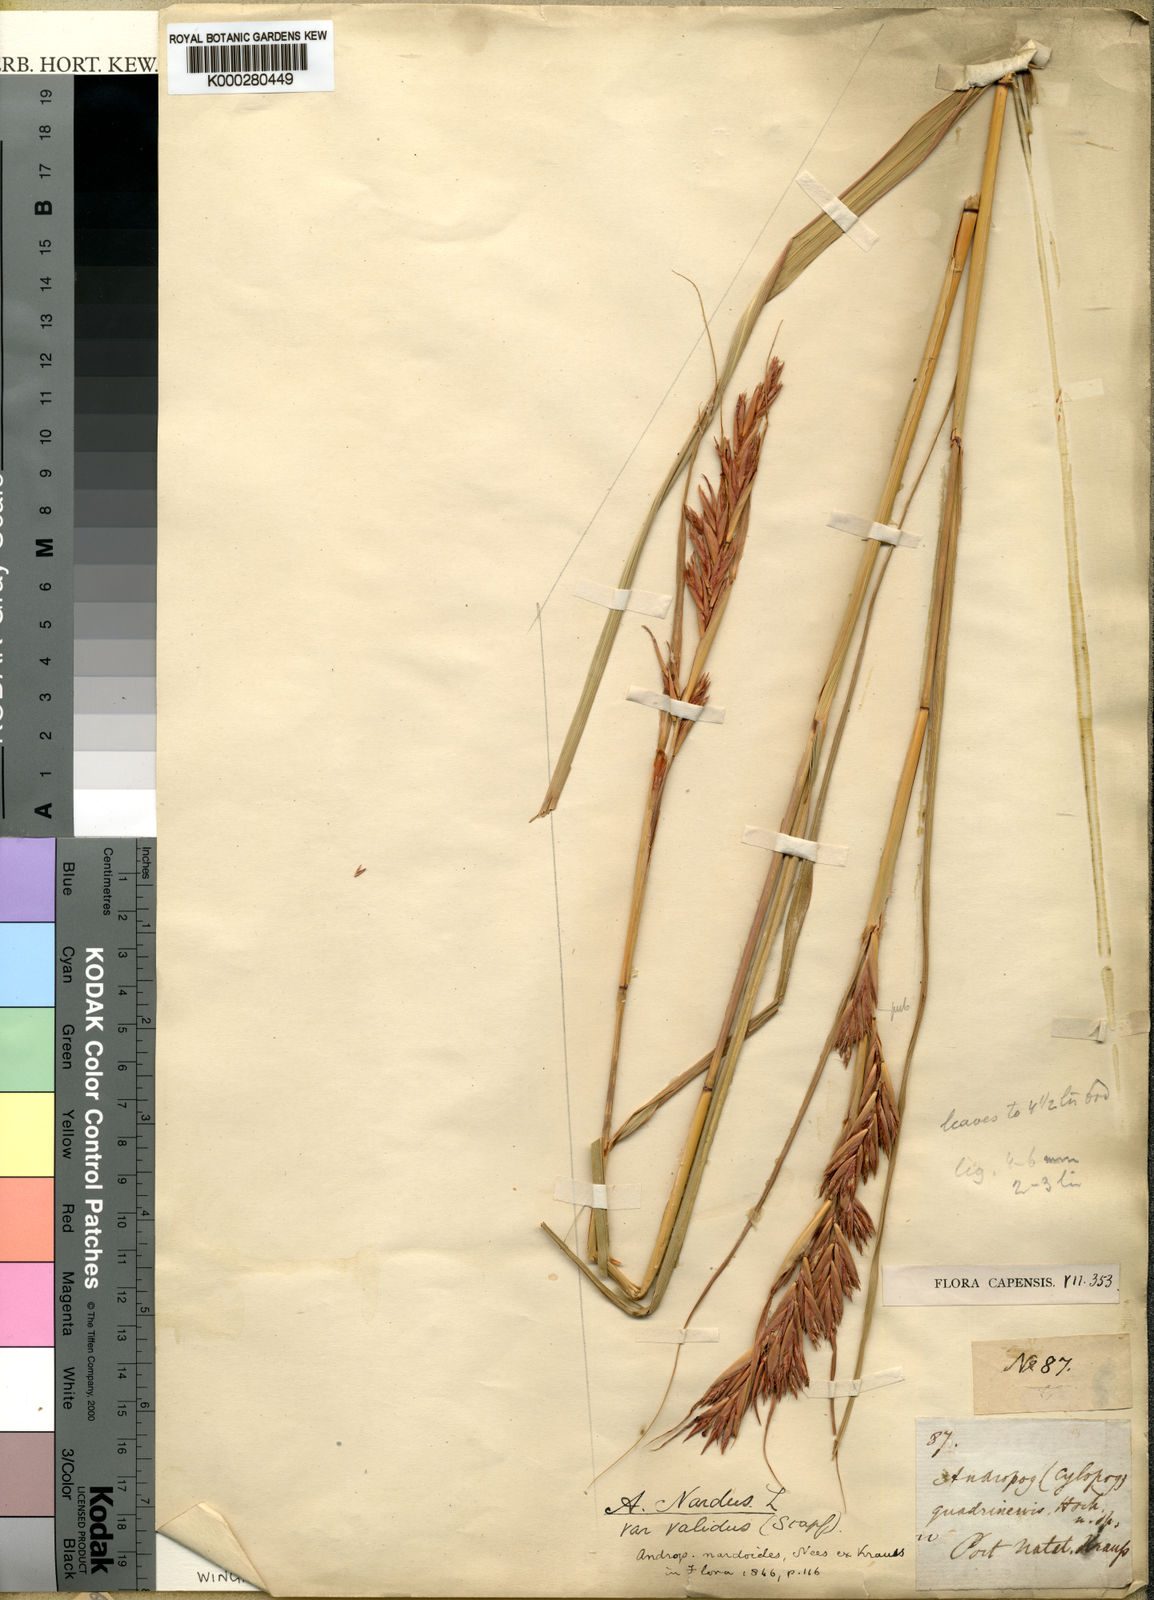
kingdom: Plantae
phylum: Tracheophyta
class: Liliopsida
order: Poales
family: Poaceae
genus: Cymbopogon
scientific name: Cymbopogon nardus
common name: Giant turpentine grass
